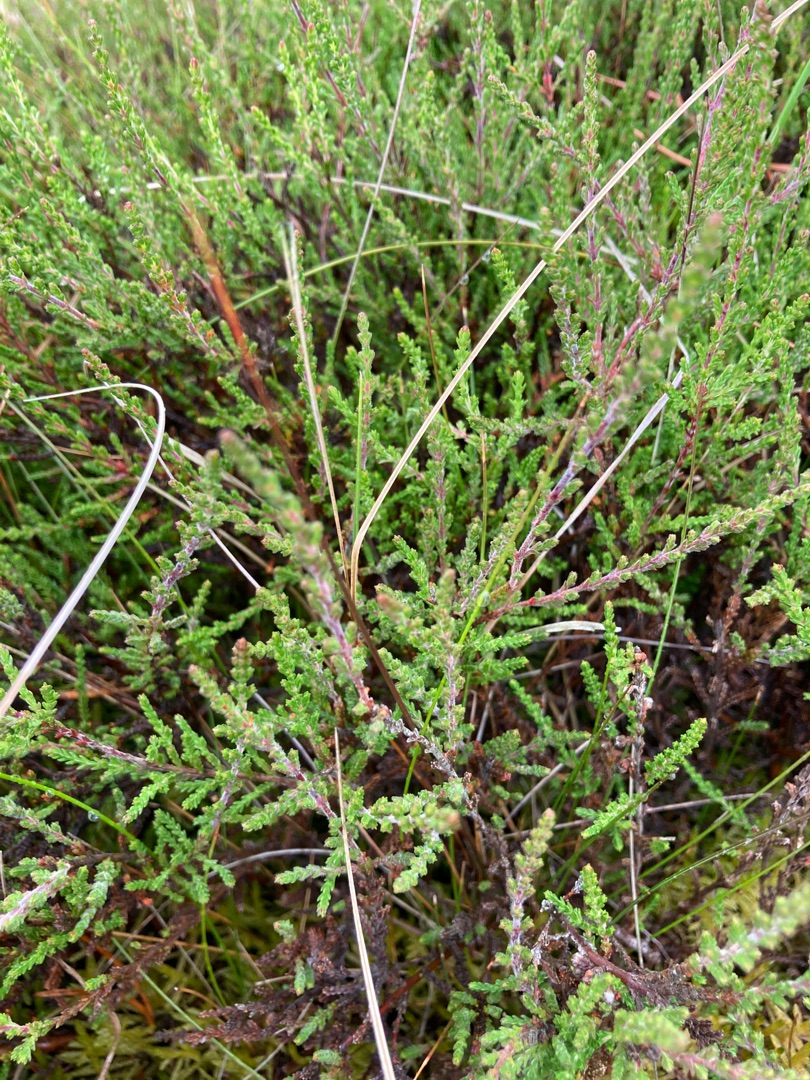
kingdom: Plantae
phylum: Tracheophyta
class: Magnoliopsida
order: Ericales
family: Ericaceae
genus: Calluna
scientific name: Calluna vulgaris
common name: Hedelyng
